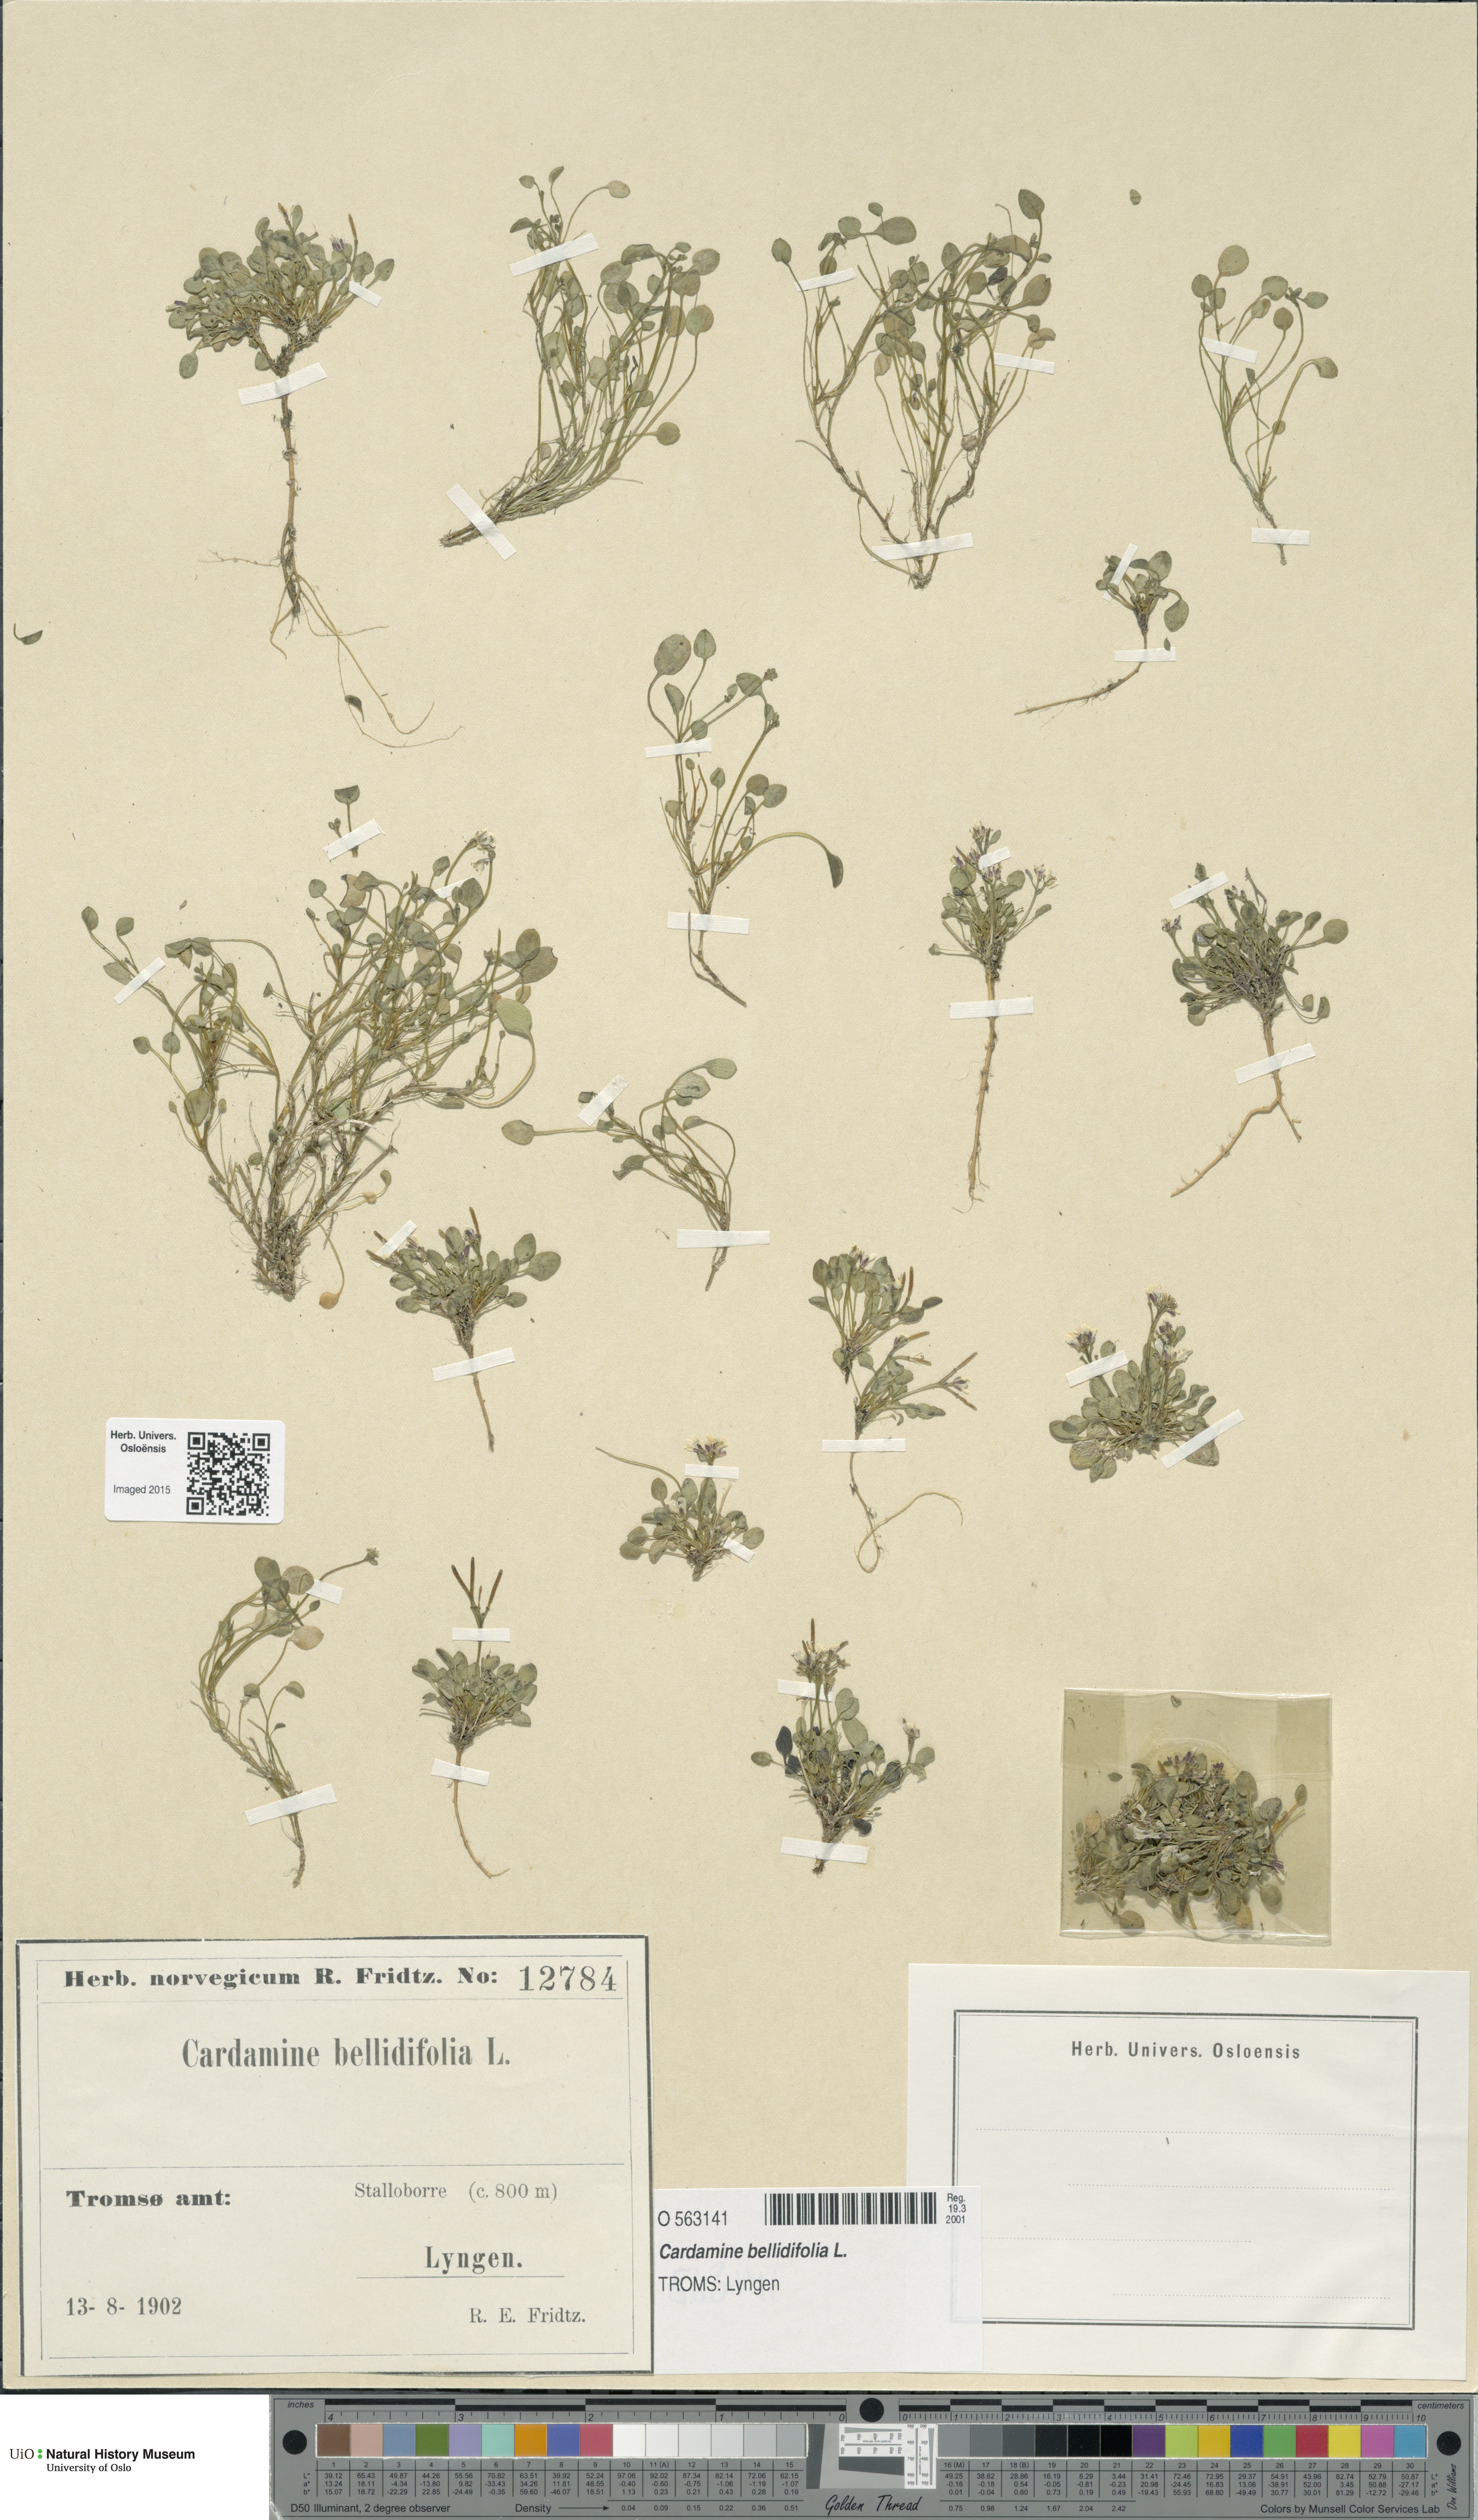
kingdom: Plantae
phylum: Tracheophyta
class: Magnoliopsida
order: Brassicales
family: Brassicaceae
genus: Cardamine
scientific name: Cardamine bellidifolia
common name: Alpine bittercress
